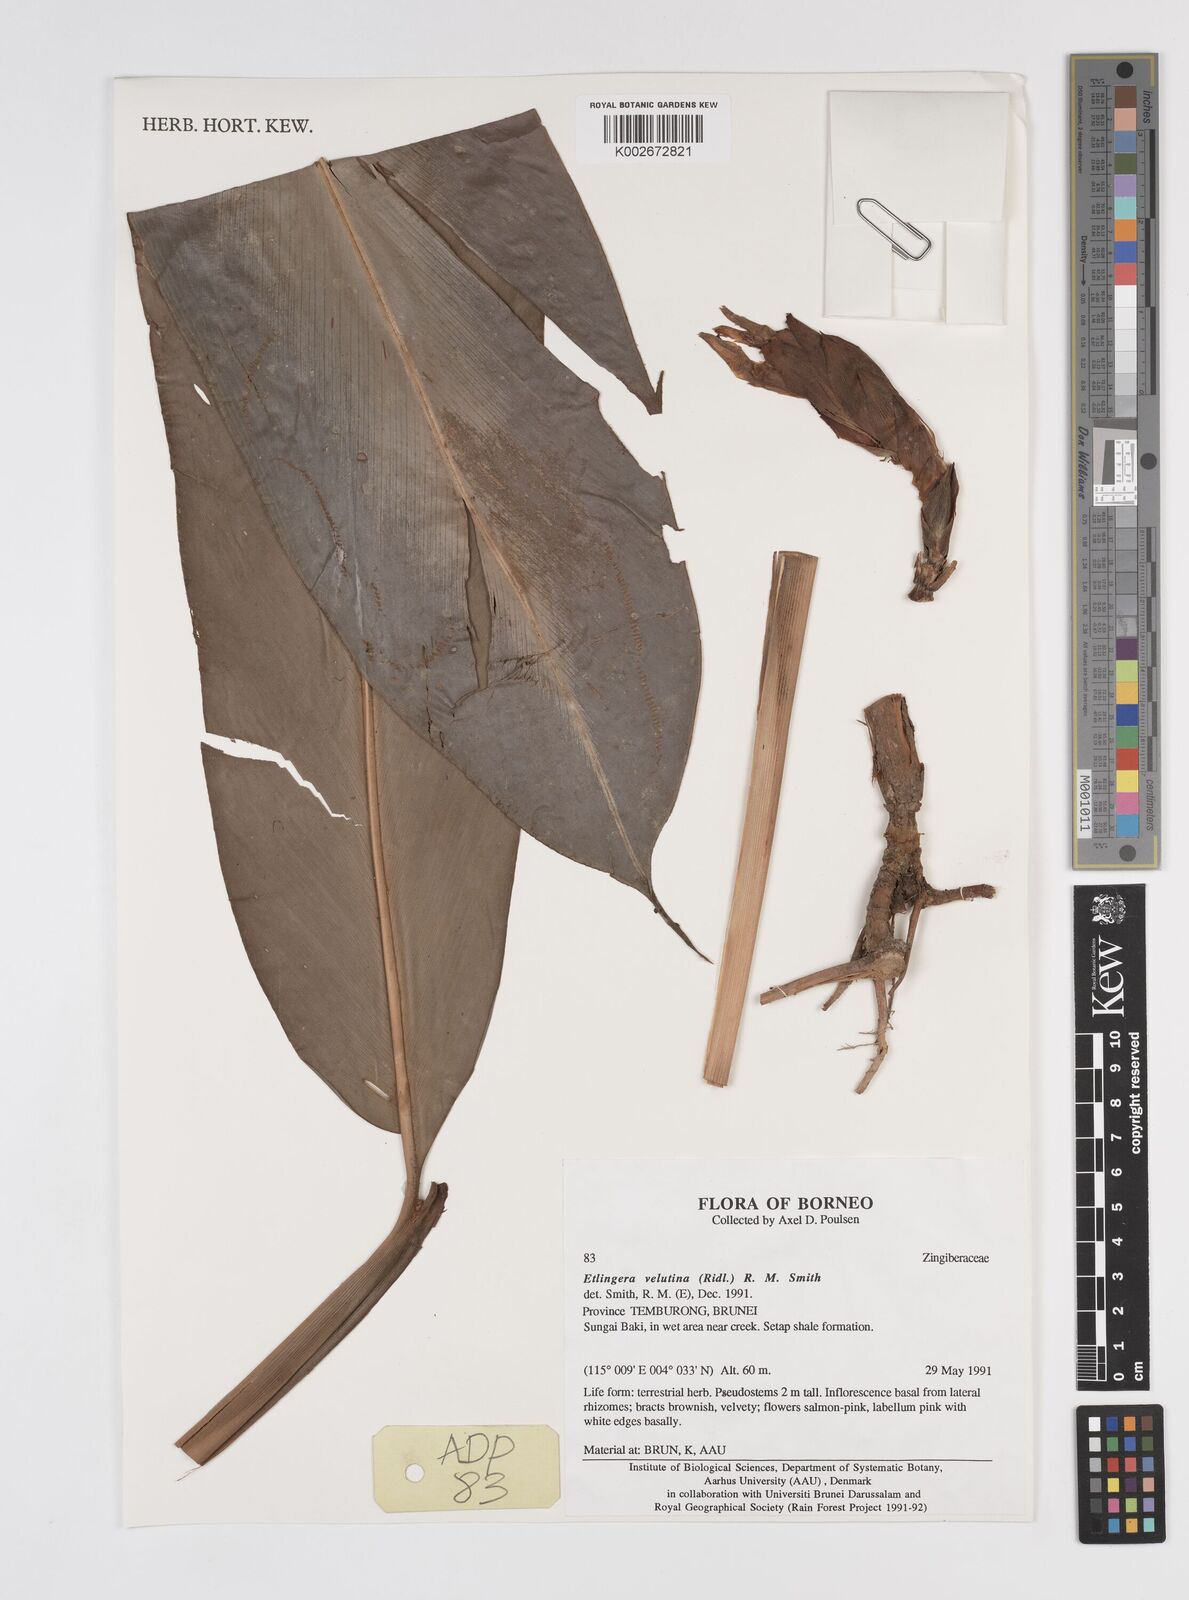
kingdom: Plantae
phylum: Tracheophyta
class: Liliopsida
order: Zingiberales
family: Zingiberaceae
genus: Etlingera
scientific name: Etlingera velutina
